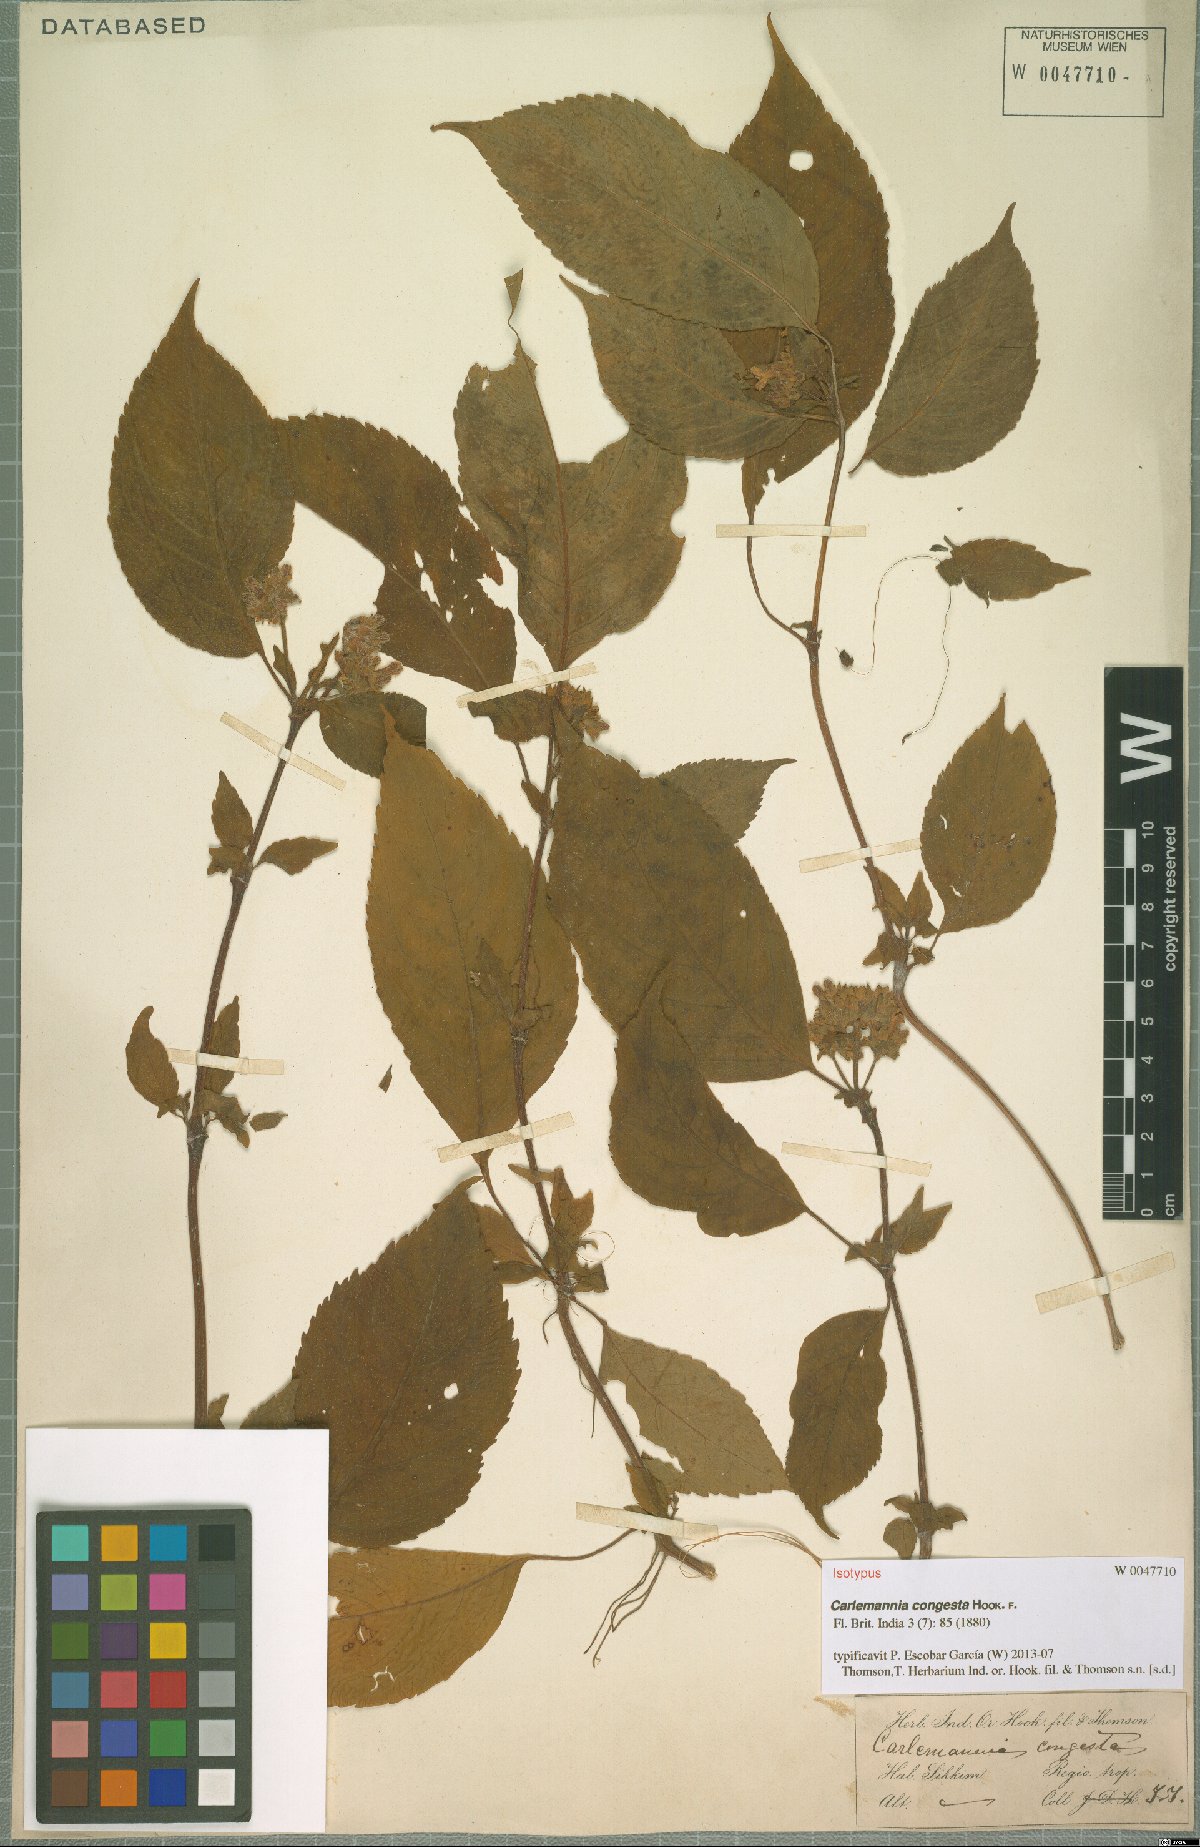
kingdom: Plantae
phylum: Tracheophyta
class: Magnoliopsida
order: Lamiales
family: Carlemanniaceae
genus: Carlemannia
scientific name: Carlemannia congesta
